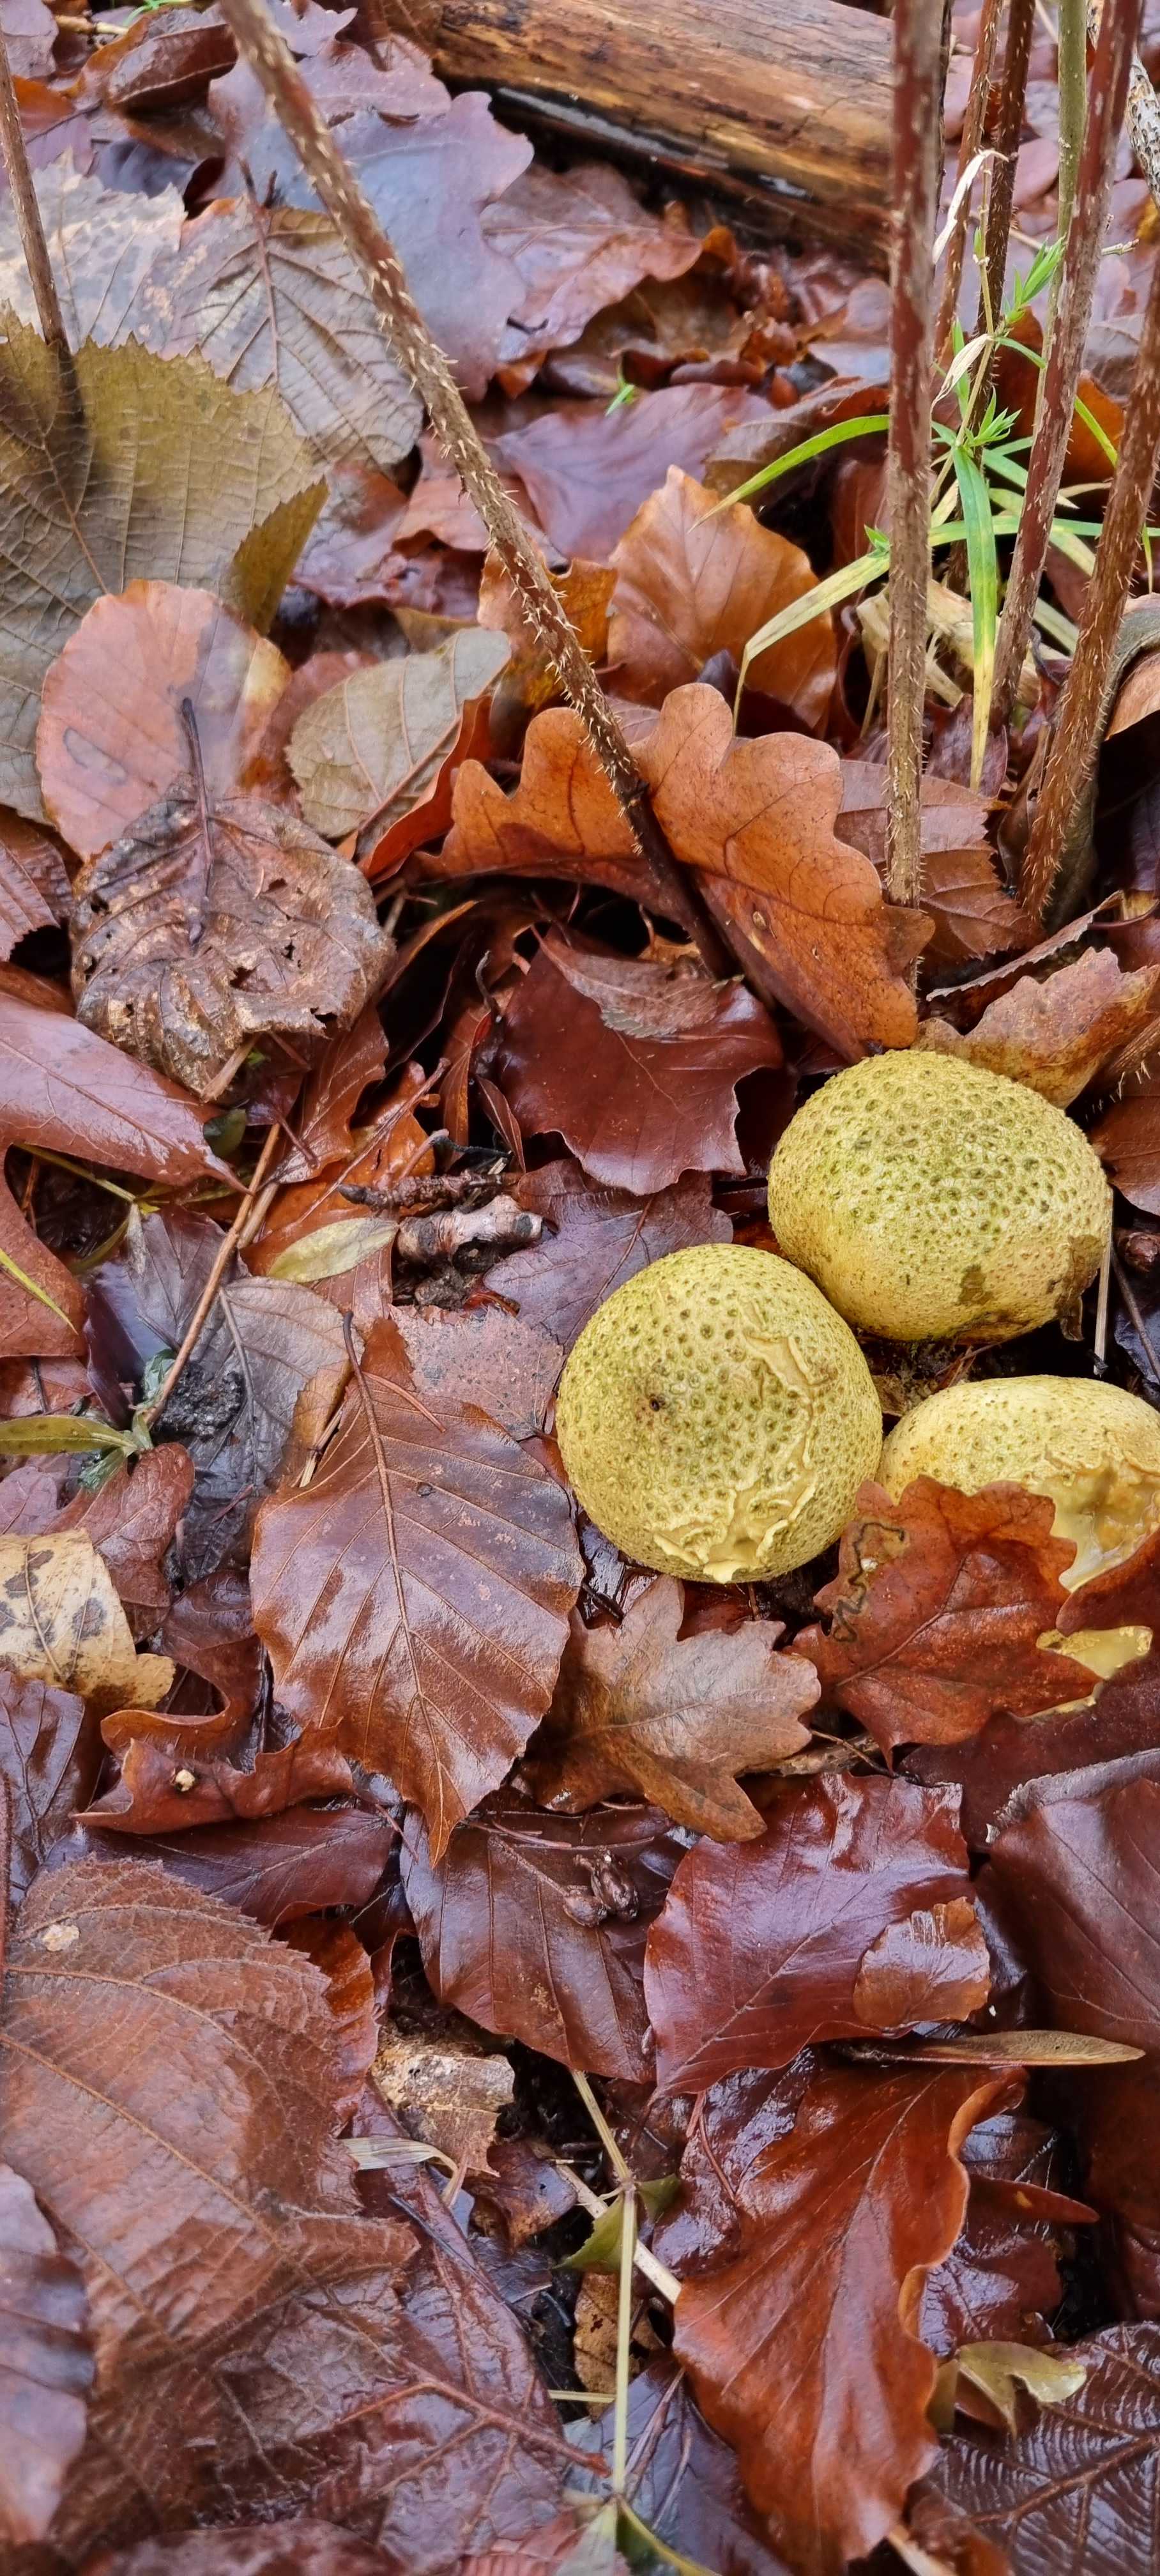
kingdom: Fungi
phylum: Basidiomycota
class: Agaricomycetes
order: Boletales
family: Sclerodermataceae
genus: Scleroderma
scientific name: Scleroderma citrinum
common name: almindelig bruskbold
